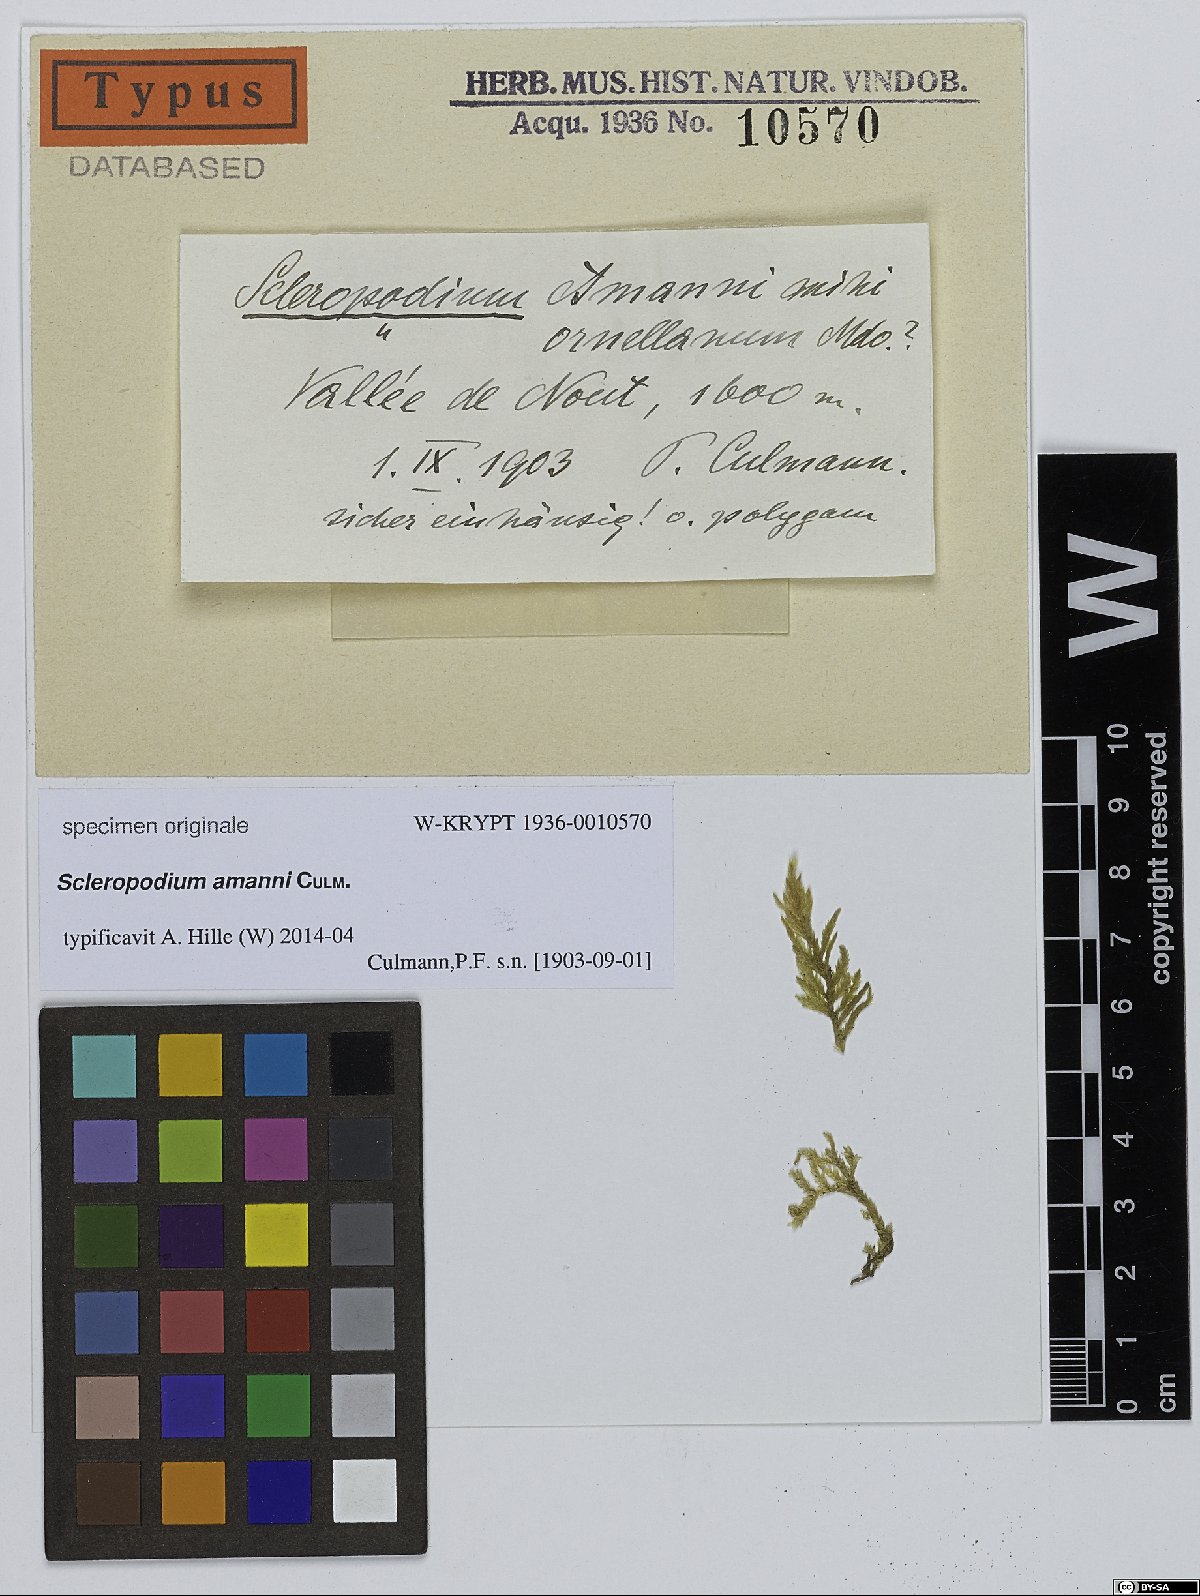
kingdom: Plantae
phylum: Bryophyta
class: Bryopsida
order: Hypnales
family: Brachytheciaceae
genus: Scleropodium
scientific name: Scleropodium
